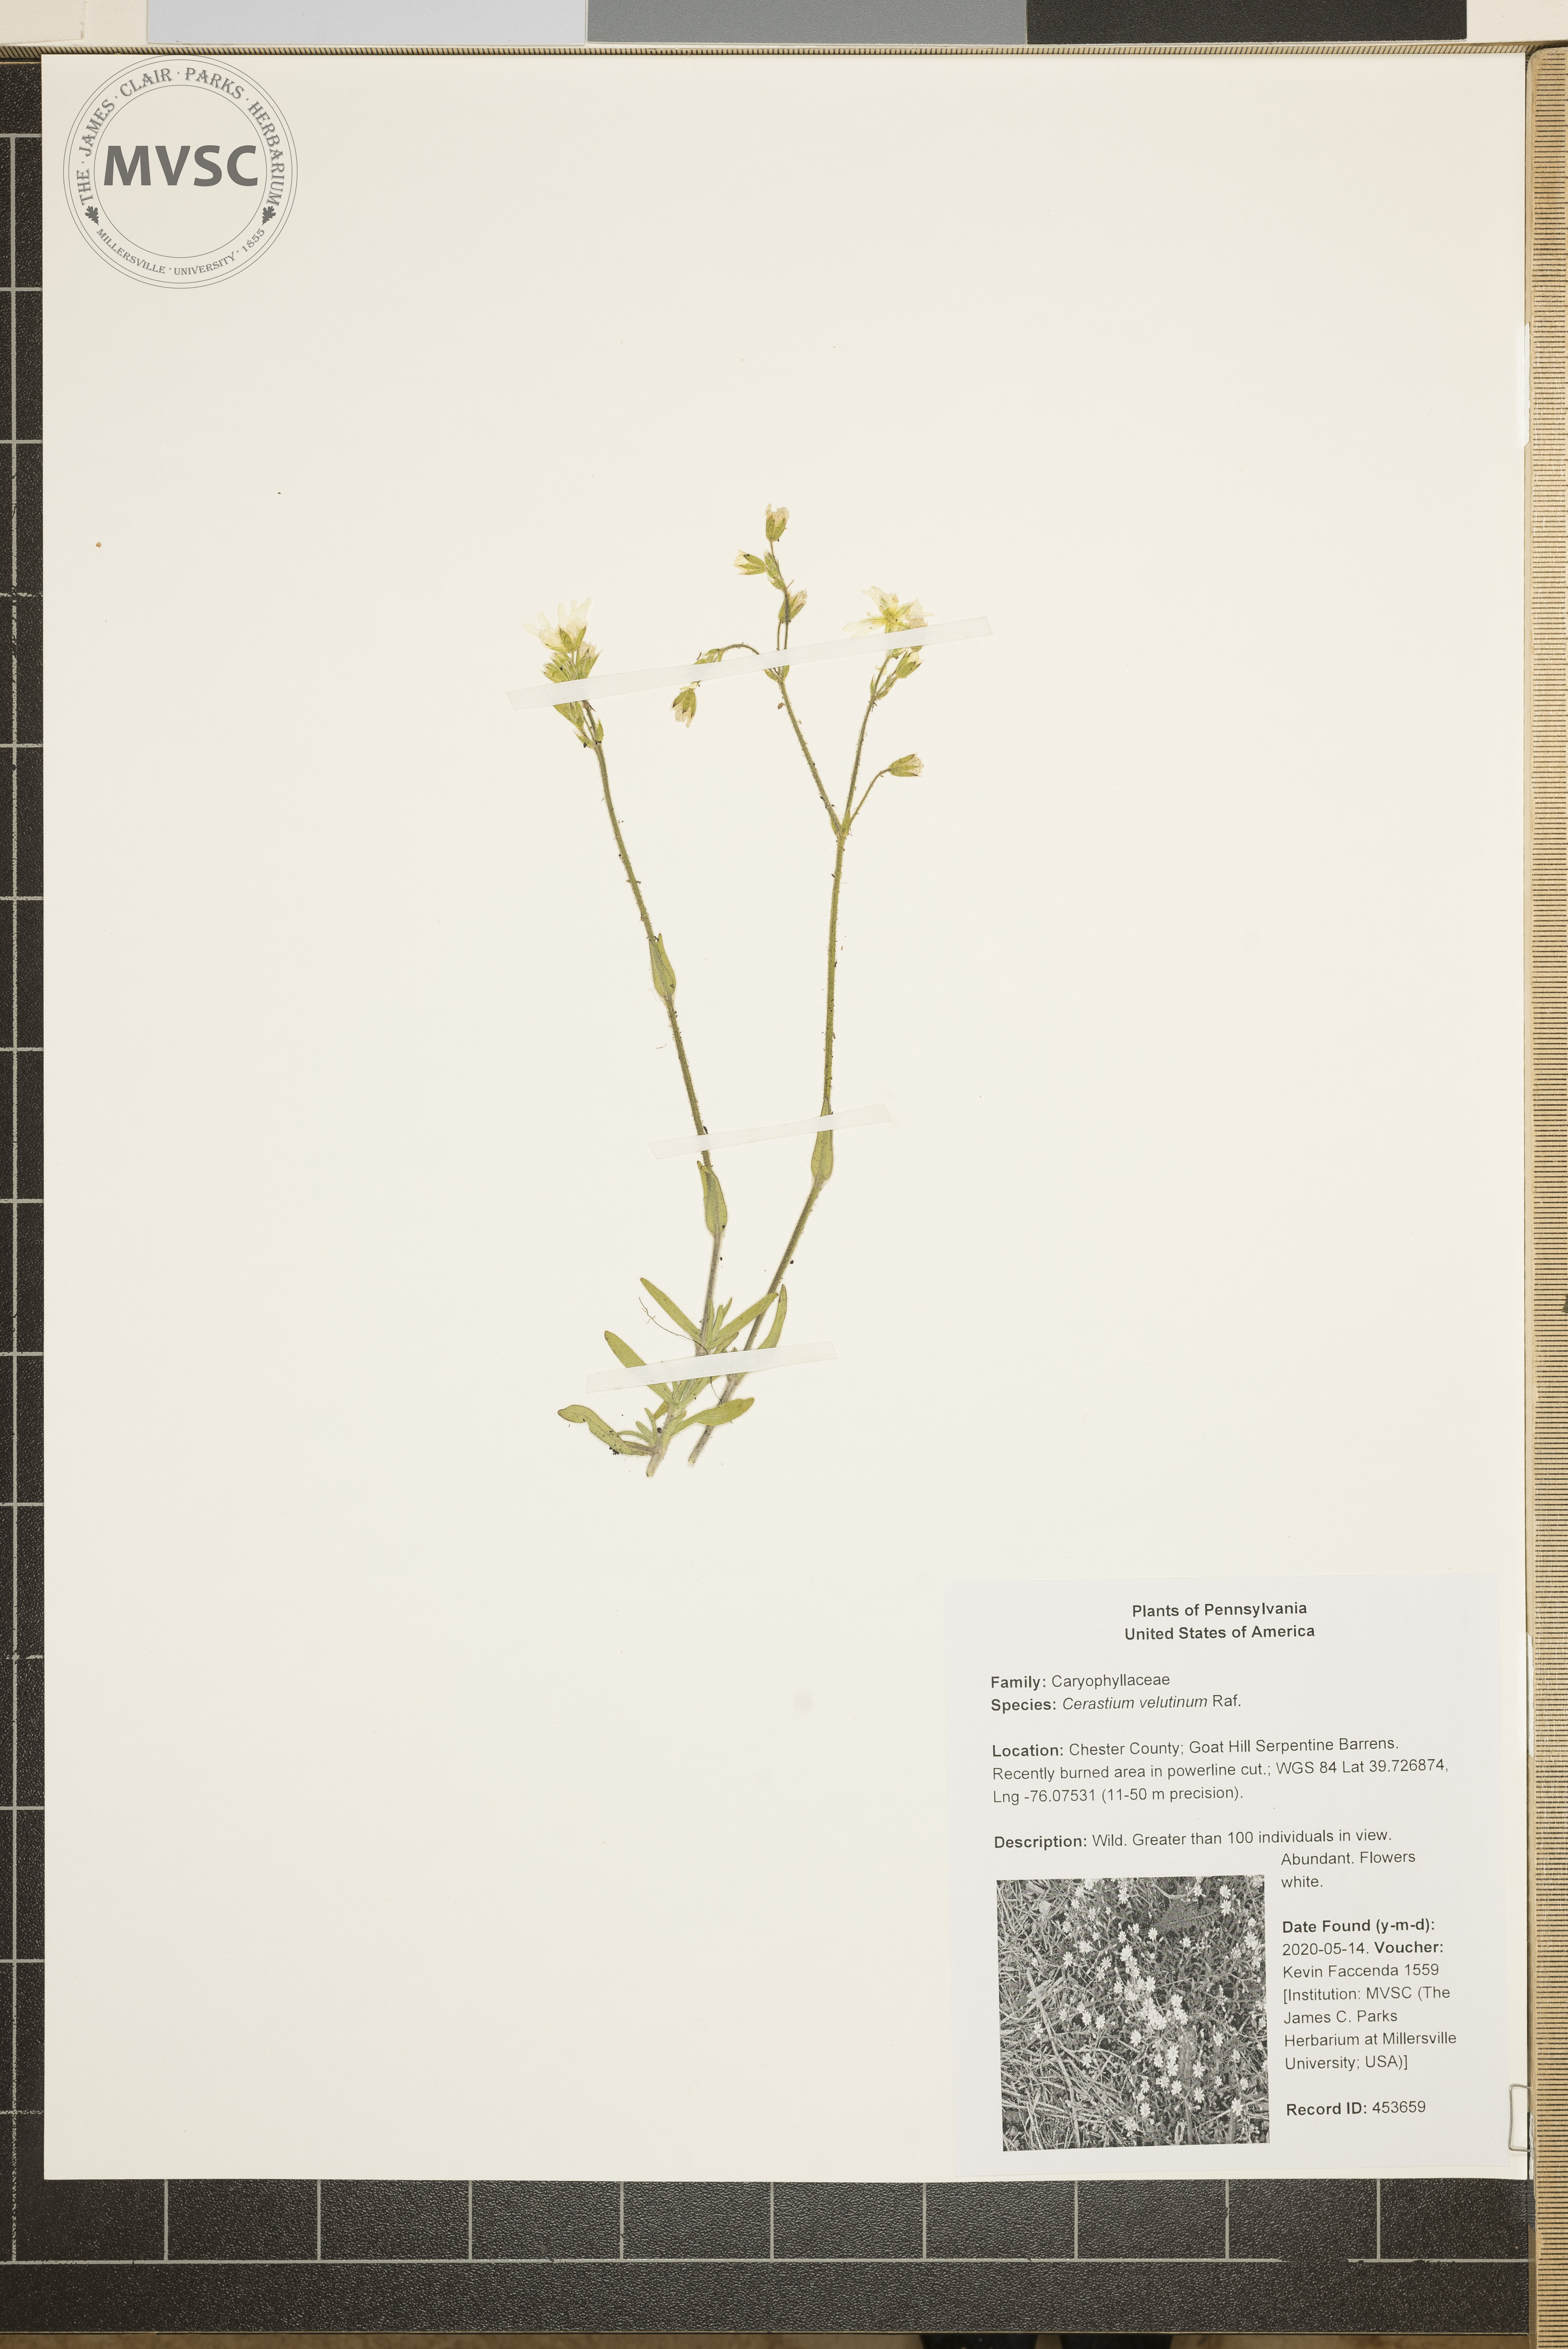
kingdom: Plantae
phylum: Tracheophyta
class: Magnoliopsida
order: Caryophyllales
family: Caryophyllaceae
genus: Cerastium
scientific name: Cerastium velutinum
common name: Barren chickweed
